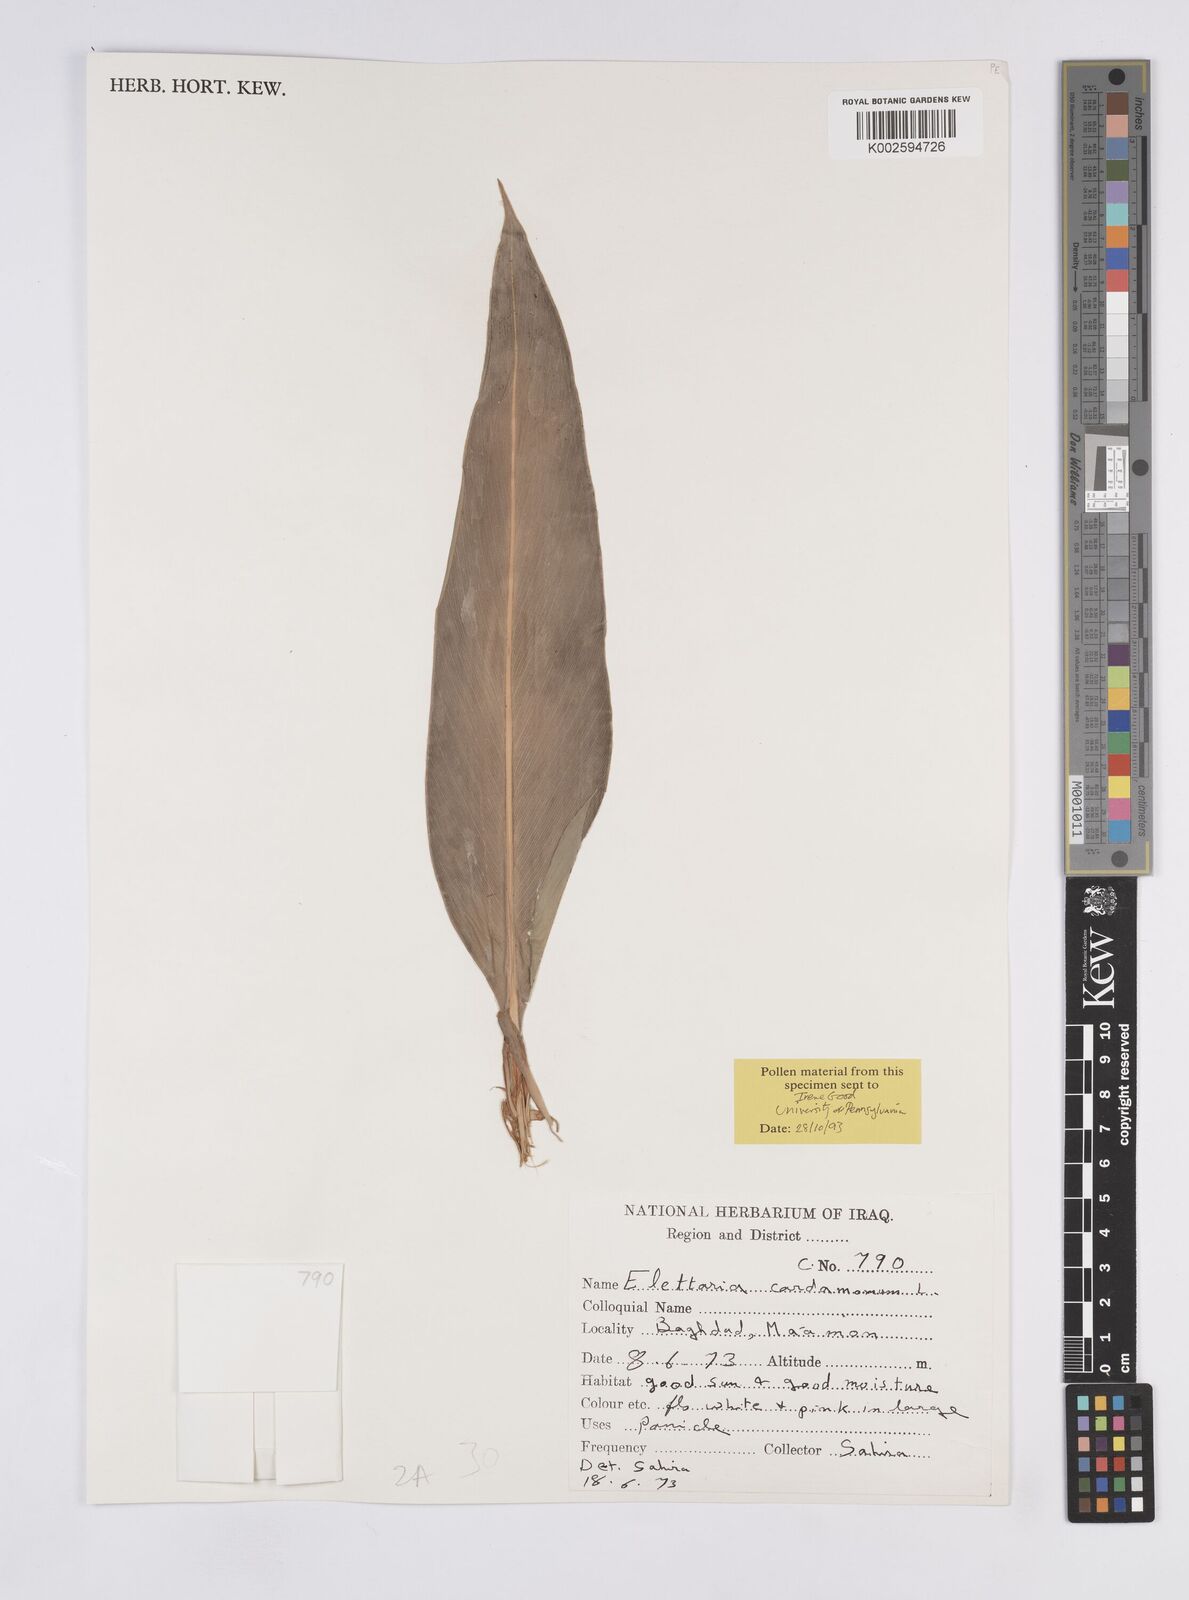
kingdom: Plantae
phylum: Tracheophyta
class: Liliopsida
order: Zingiberales
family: Zingiberaceae
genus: Elettaria
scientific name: Elettaria cardamomum
